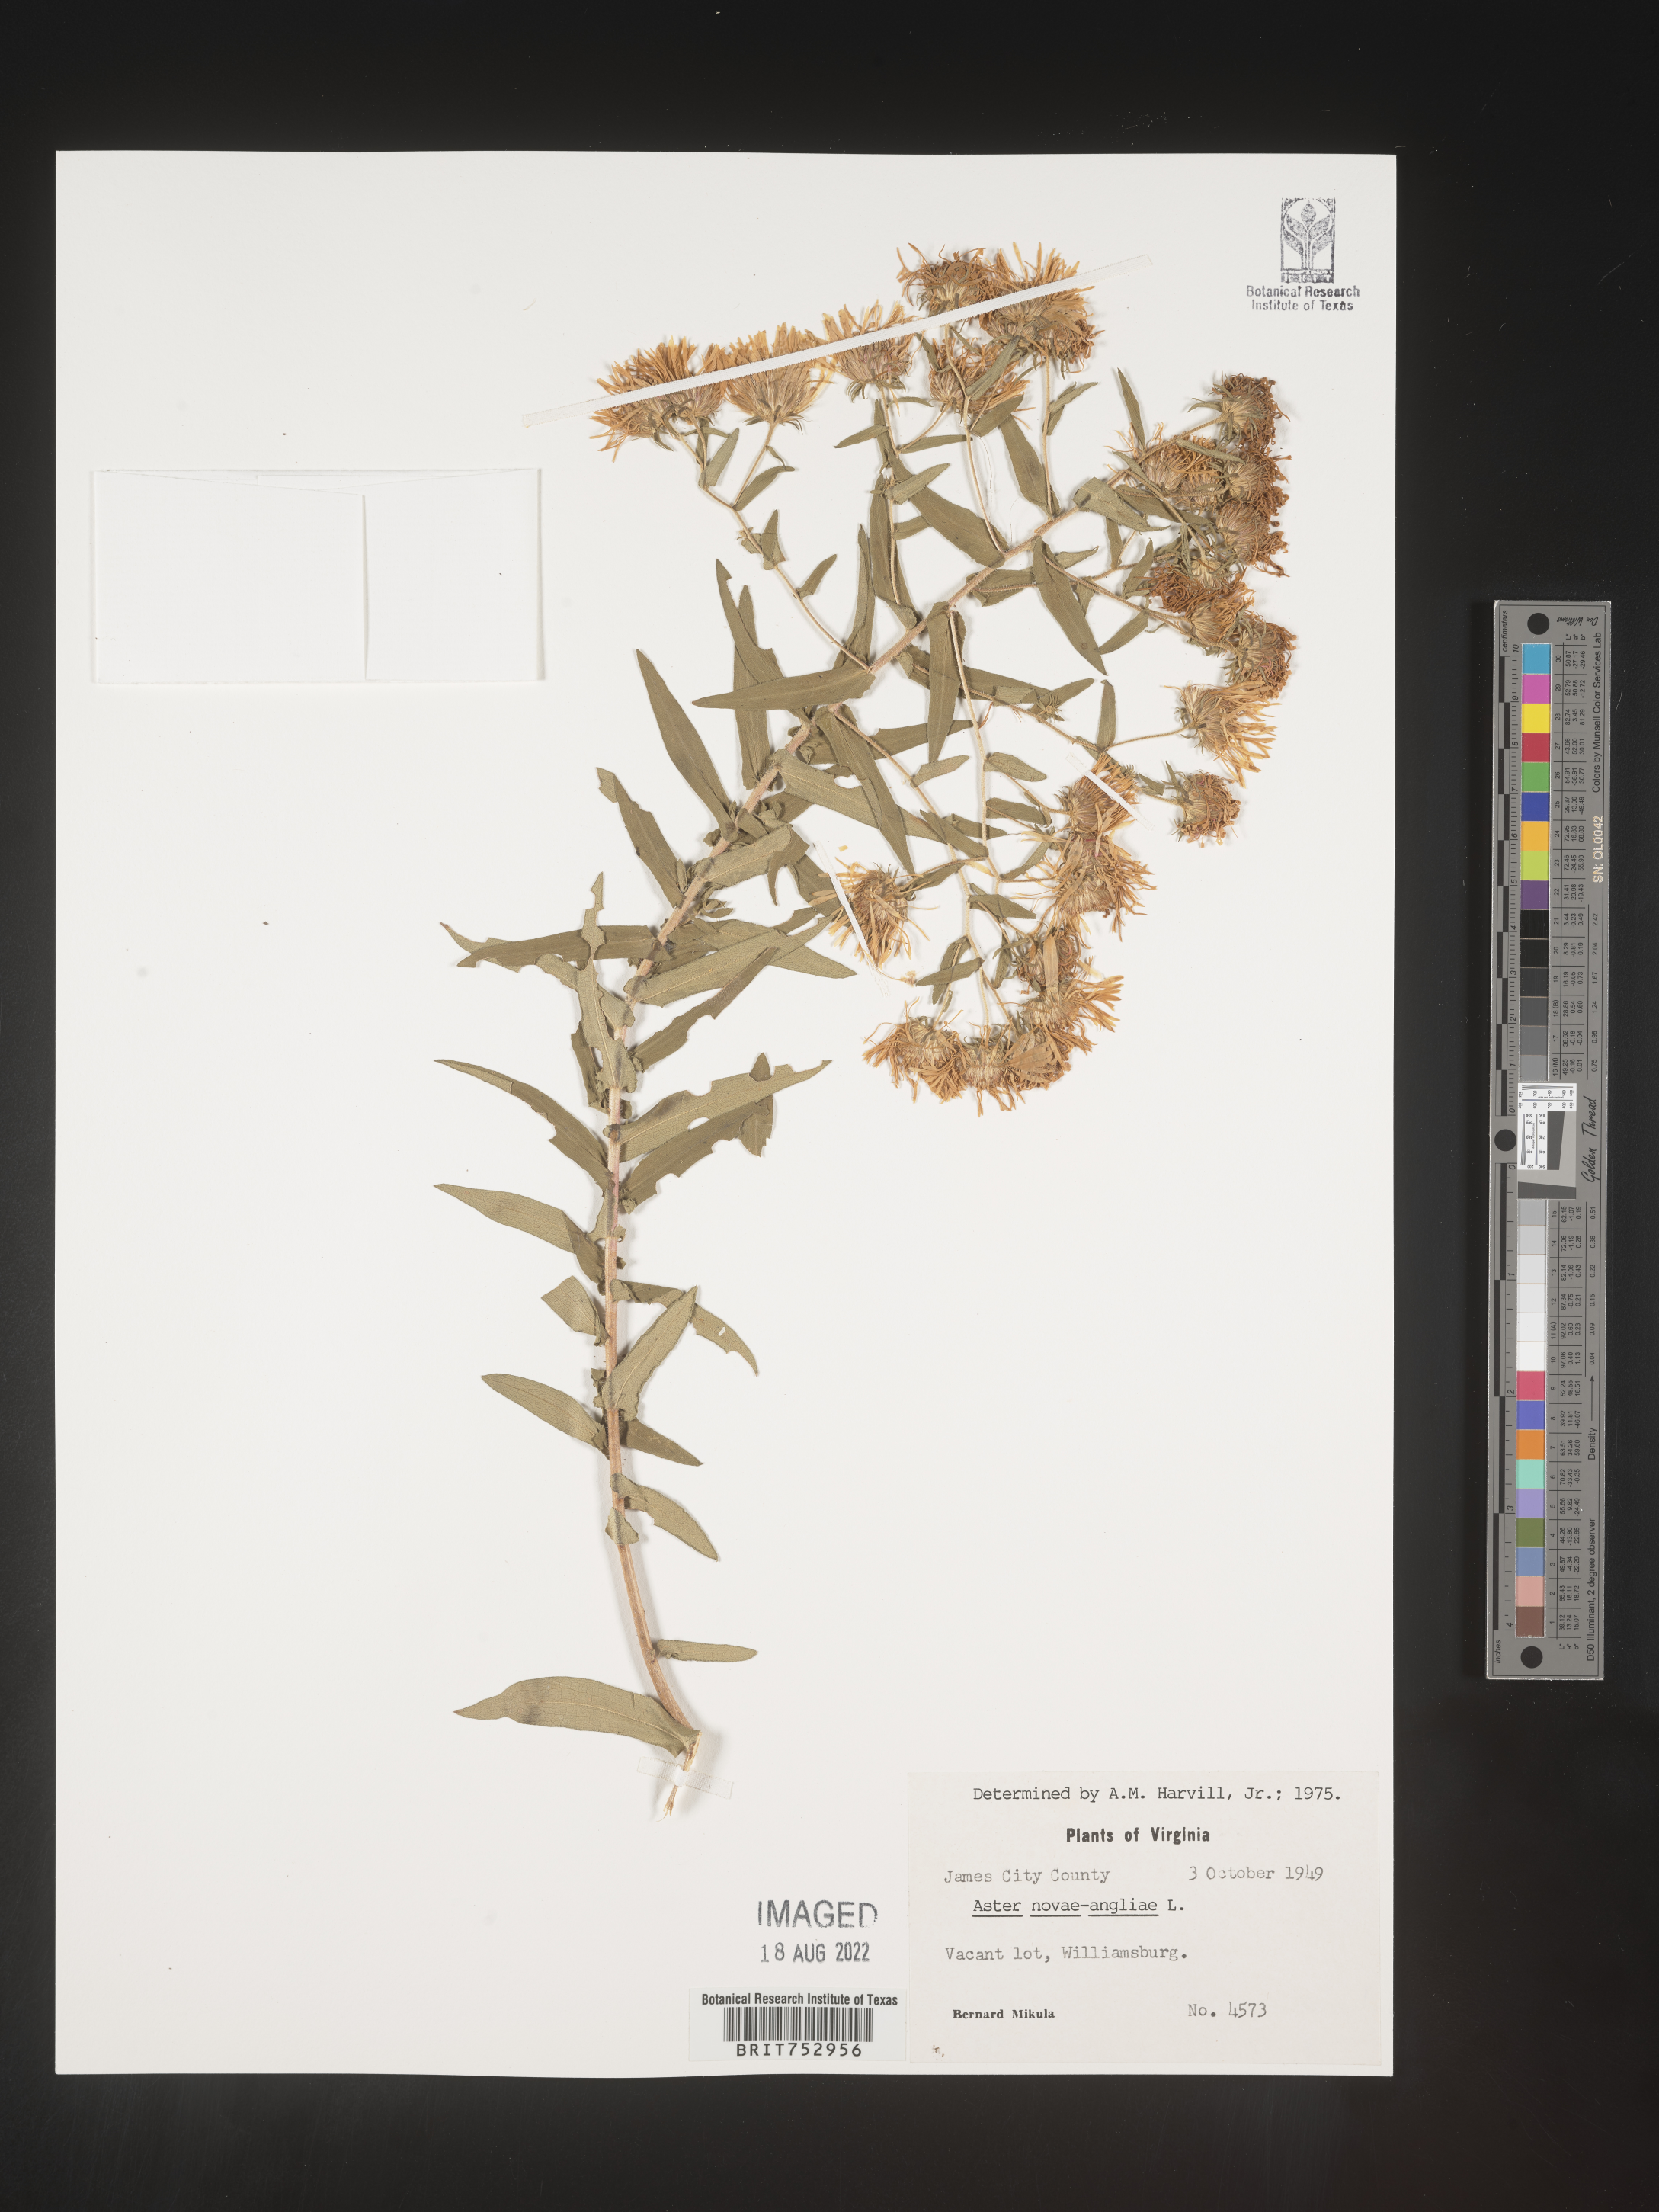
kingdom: Plantae
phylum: Tracheophyta
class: Magnoliopsida
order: Asterales
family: Asteraceae
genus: Symphyotrichum
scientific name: Symphyotrichum novae-angliae
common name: Michaelmas daisy
